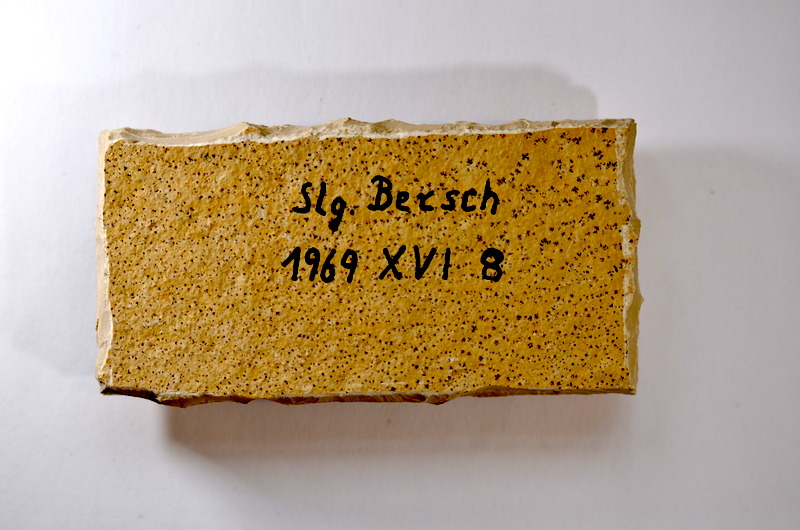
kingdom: Animalia
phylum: Chordata
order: Salmoniformes
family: Orthogonikleithridae
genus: Leptolepides
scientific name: Leptolepides sprattiformis
